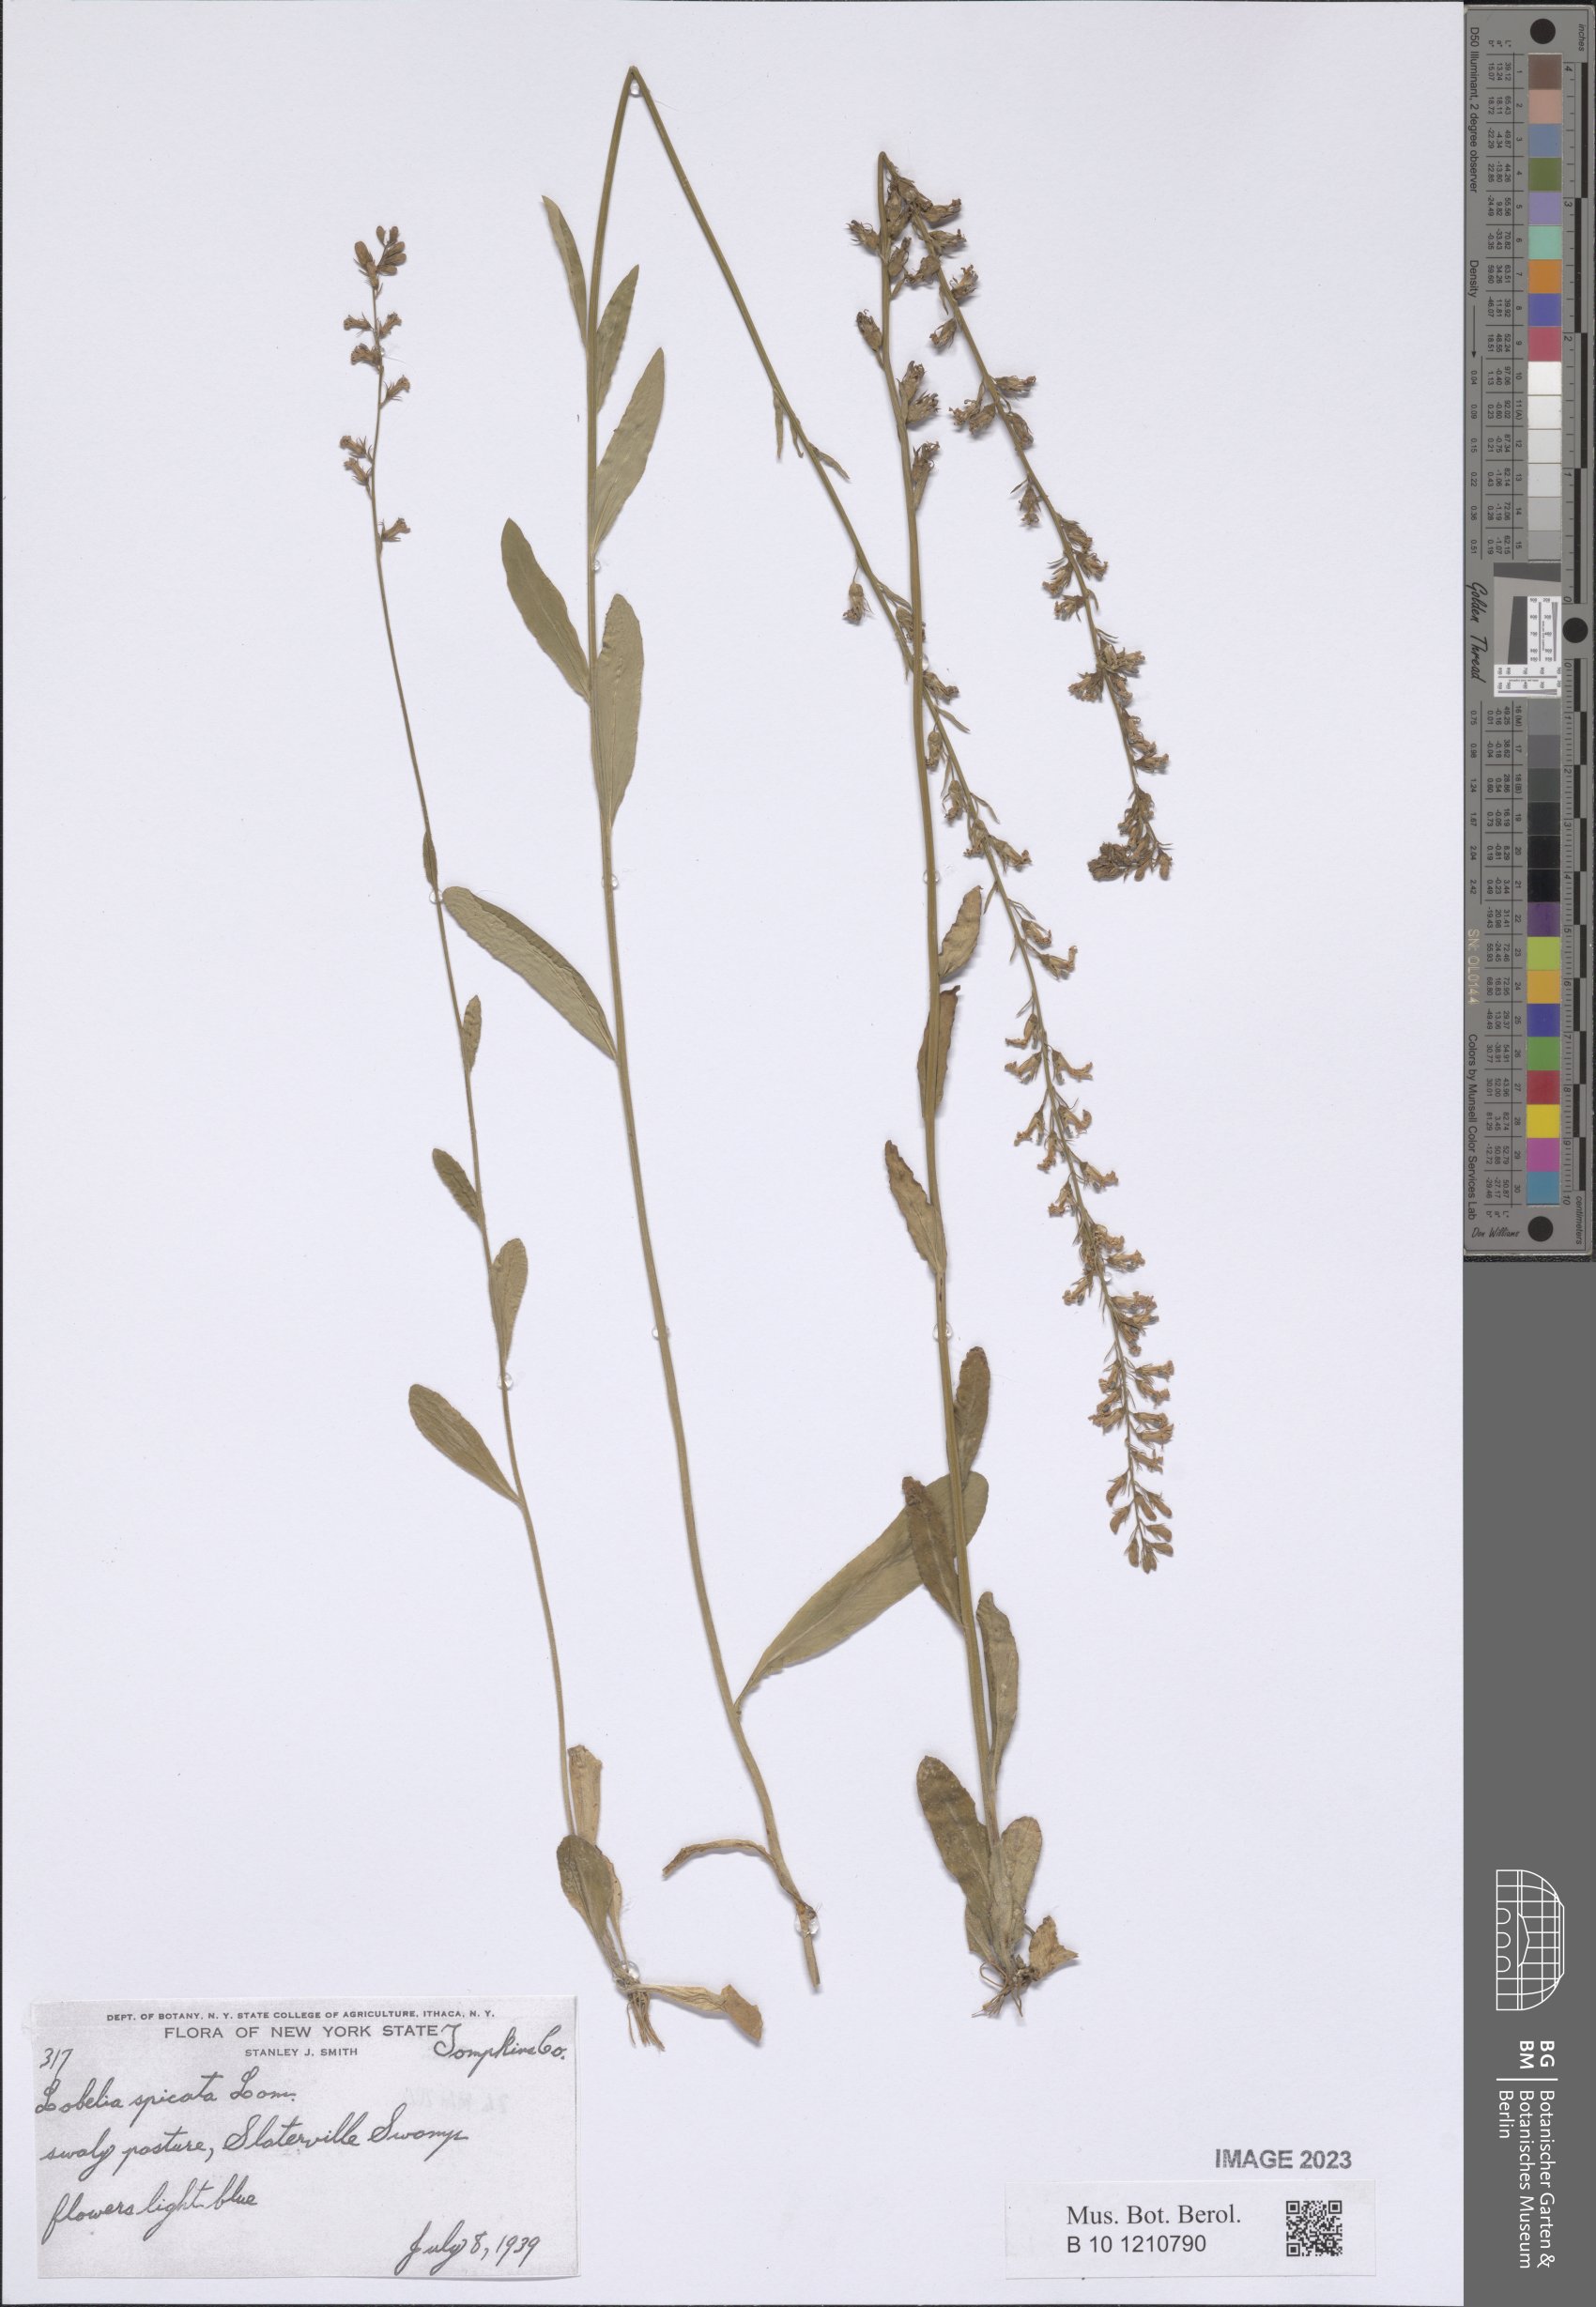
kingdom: Plantae
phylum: Tracheophyta
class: Magnoliopsida
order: Asterales
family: Campanulaceae
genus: Lobelia
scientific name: Lobelia spicata
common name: Pale-spike lobelia
